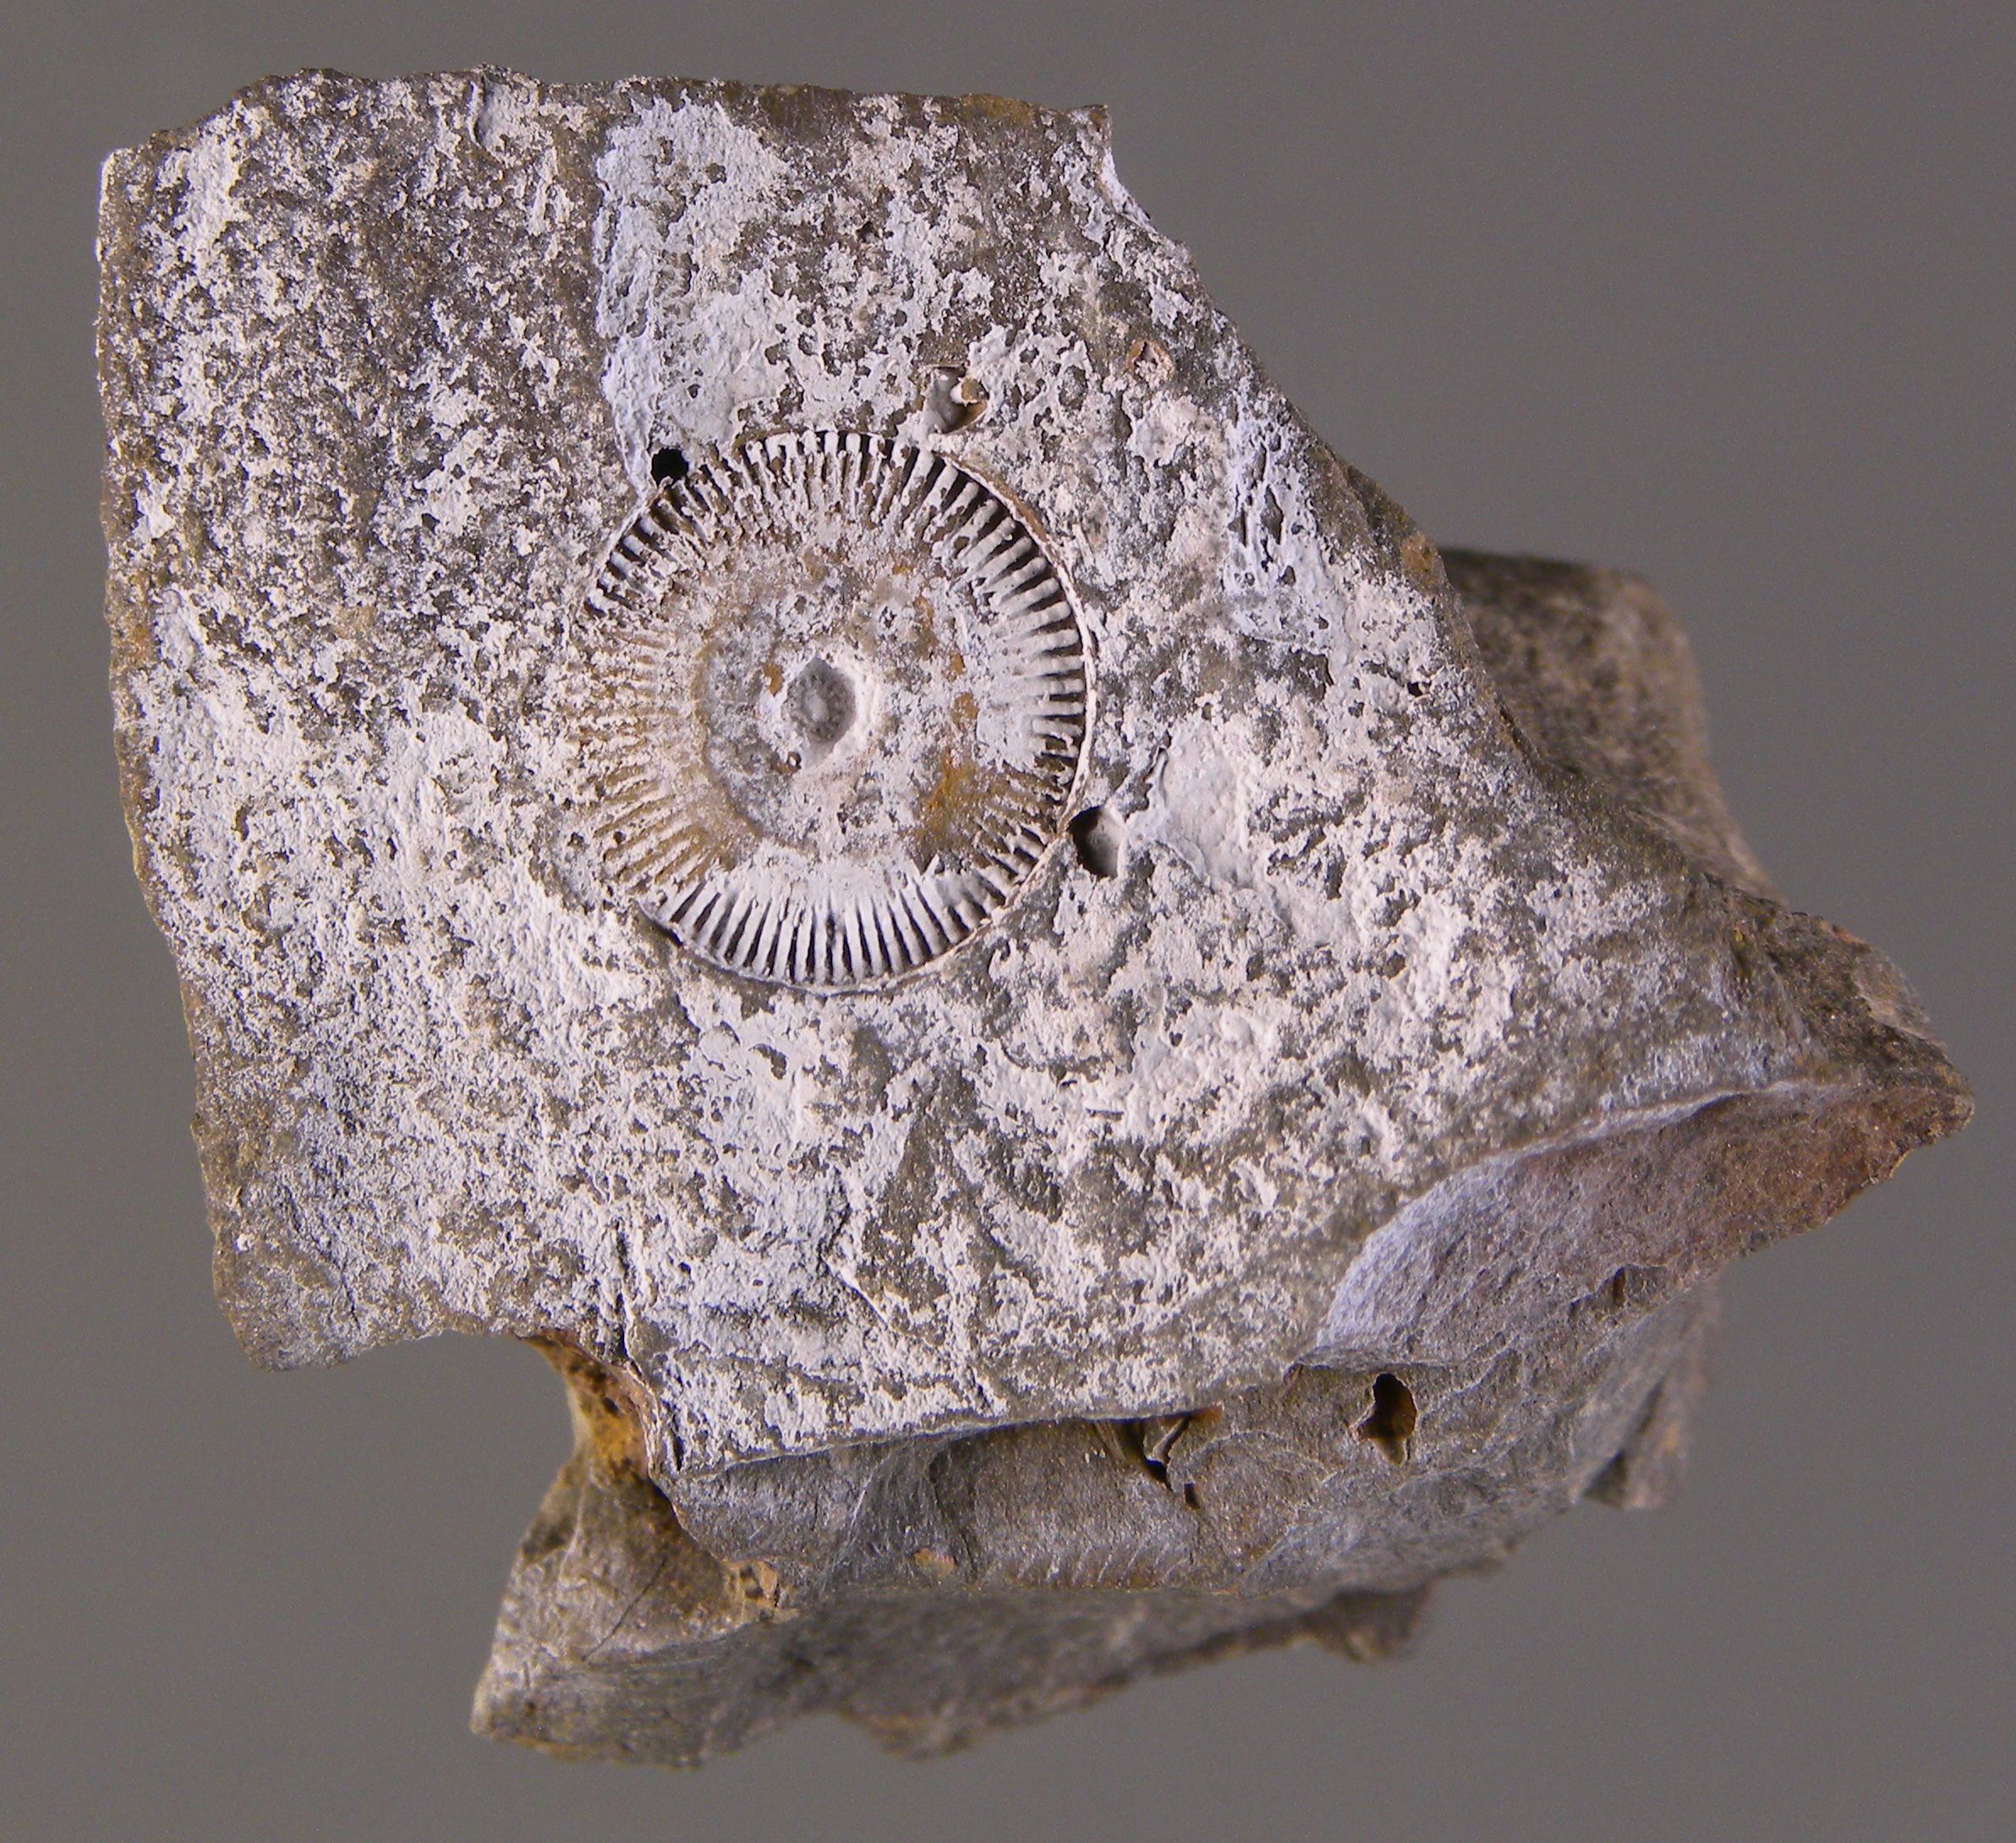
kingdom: Animalia
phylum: Echinodermata
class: Crinoidea
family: Melocrinitidae
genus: Ctenocrinus
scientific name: Ctenocrinus
